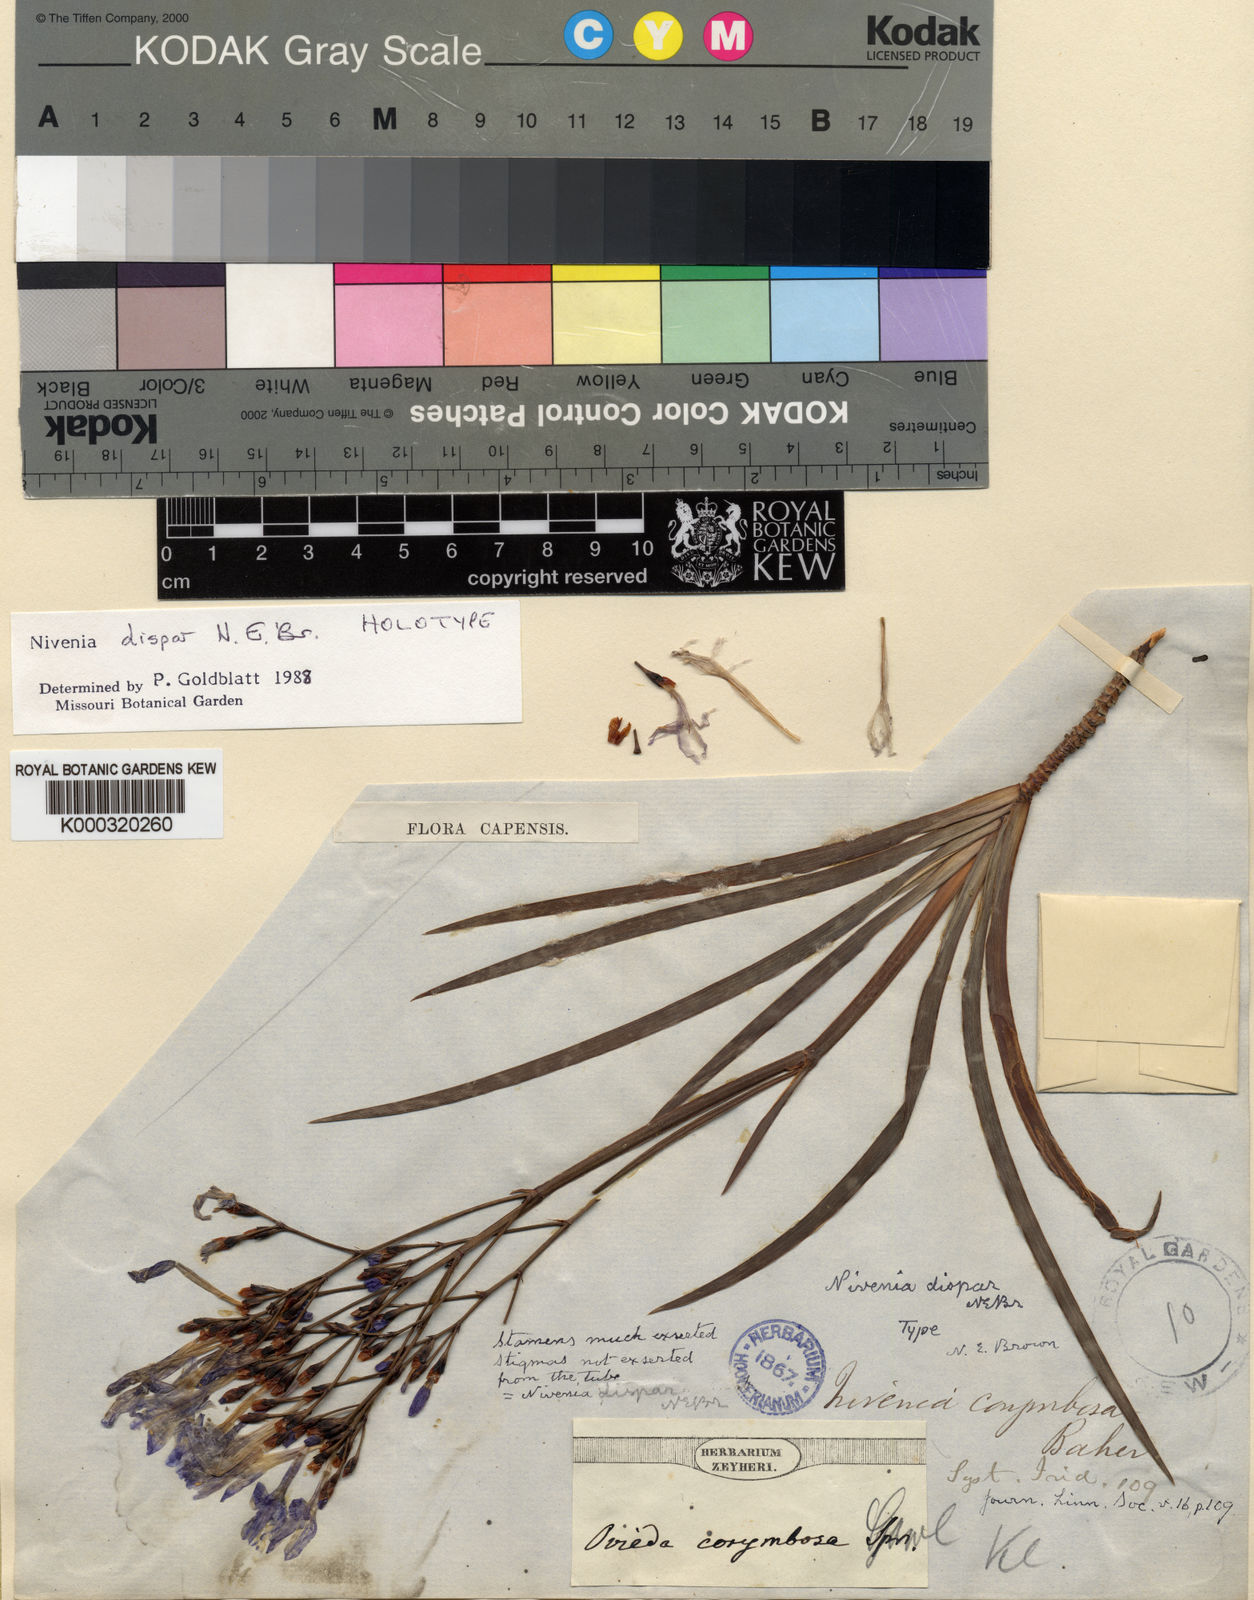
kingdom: Plantae
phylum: Tracheophyta
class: Liliopsida
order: Asparagales
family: Iridaceae
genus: Nivenia
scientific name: Nivenia dispar
